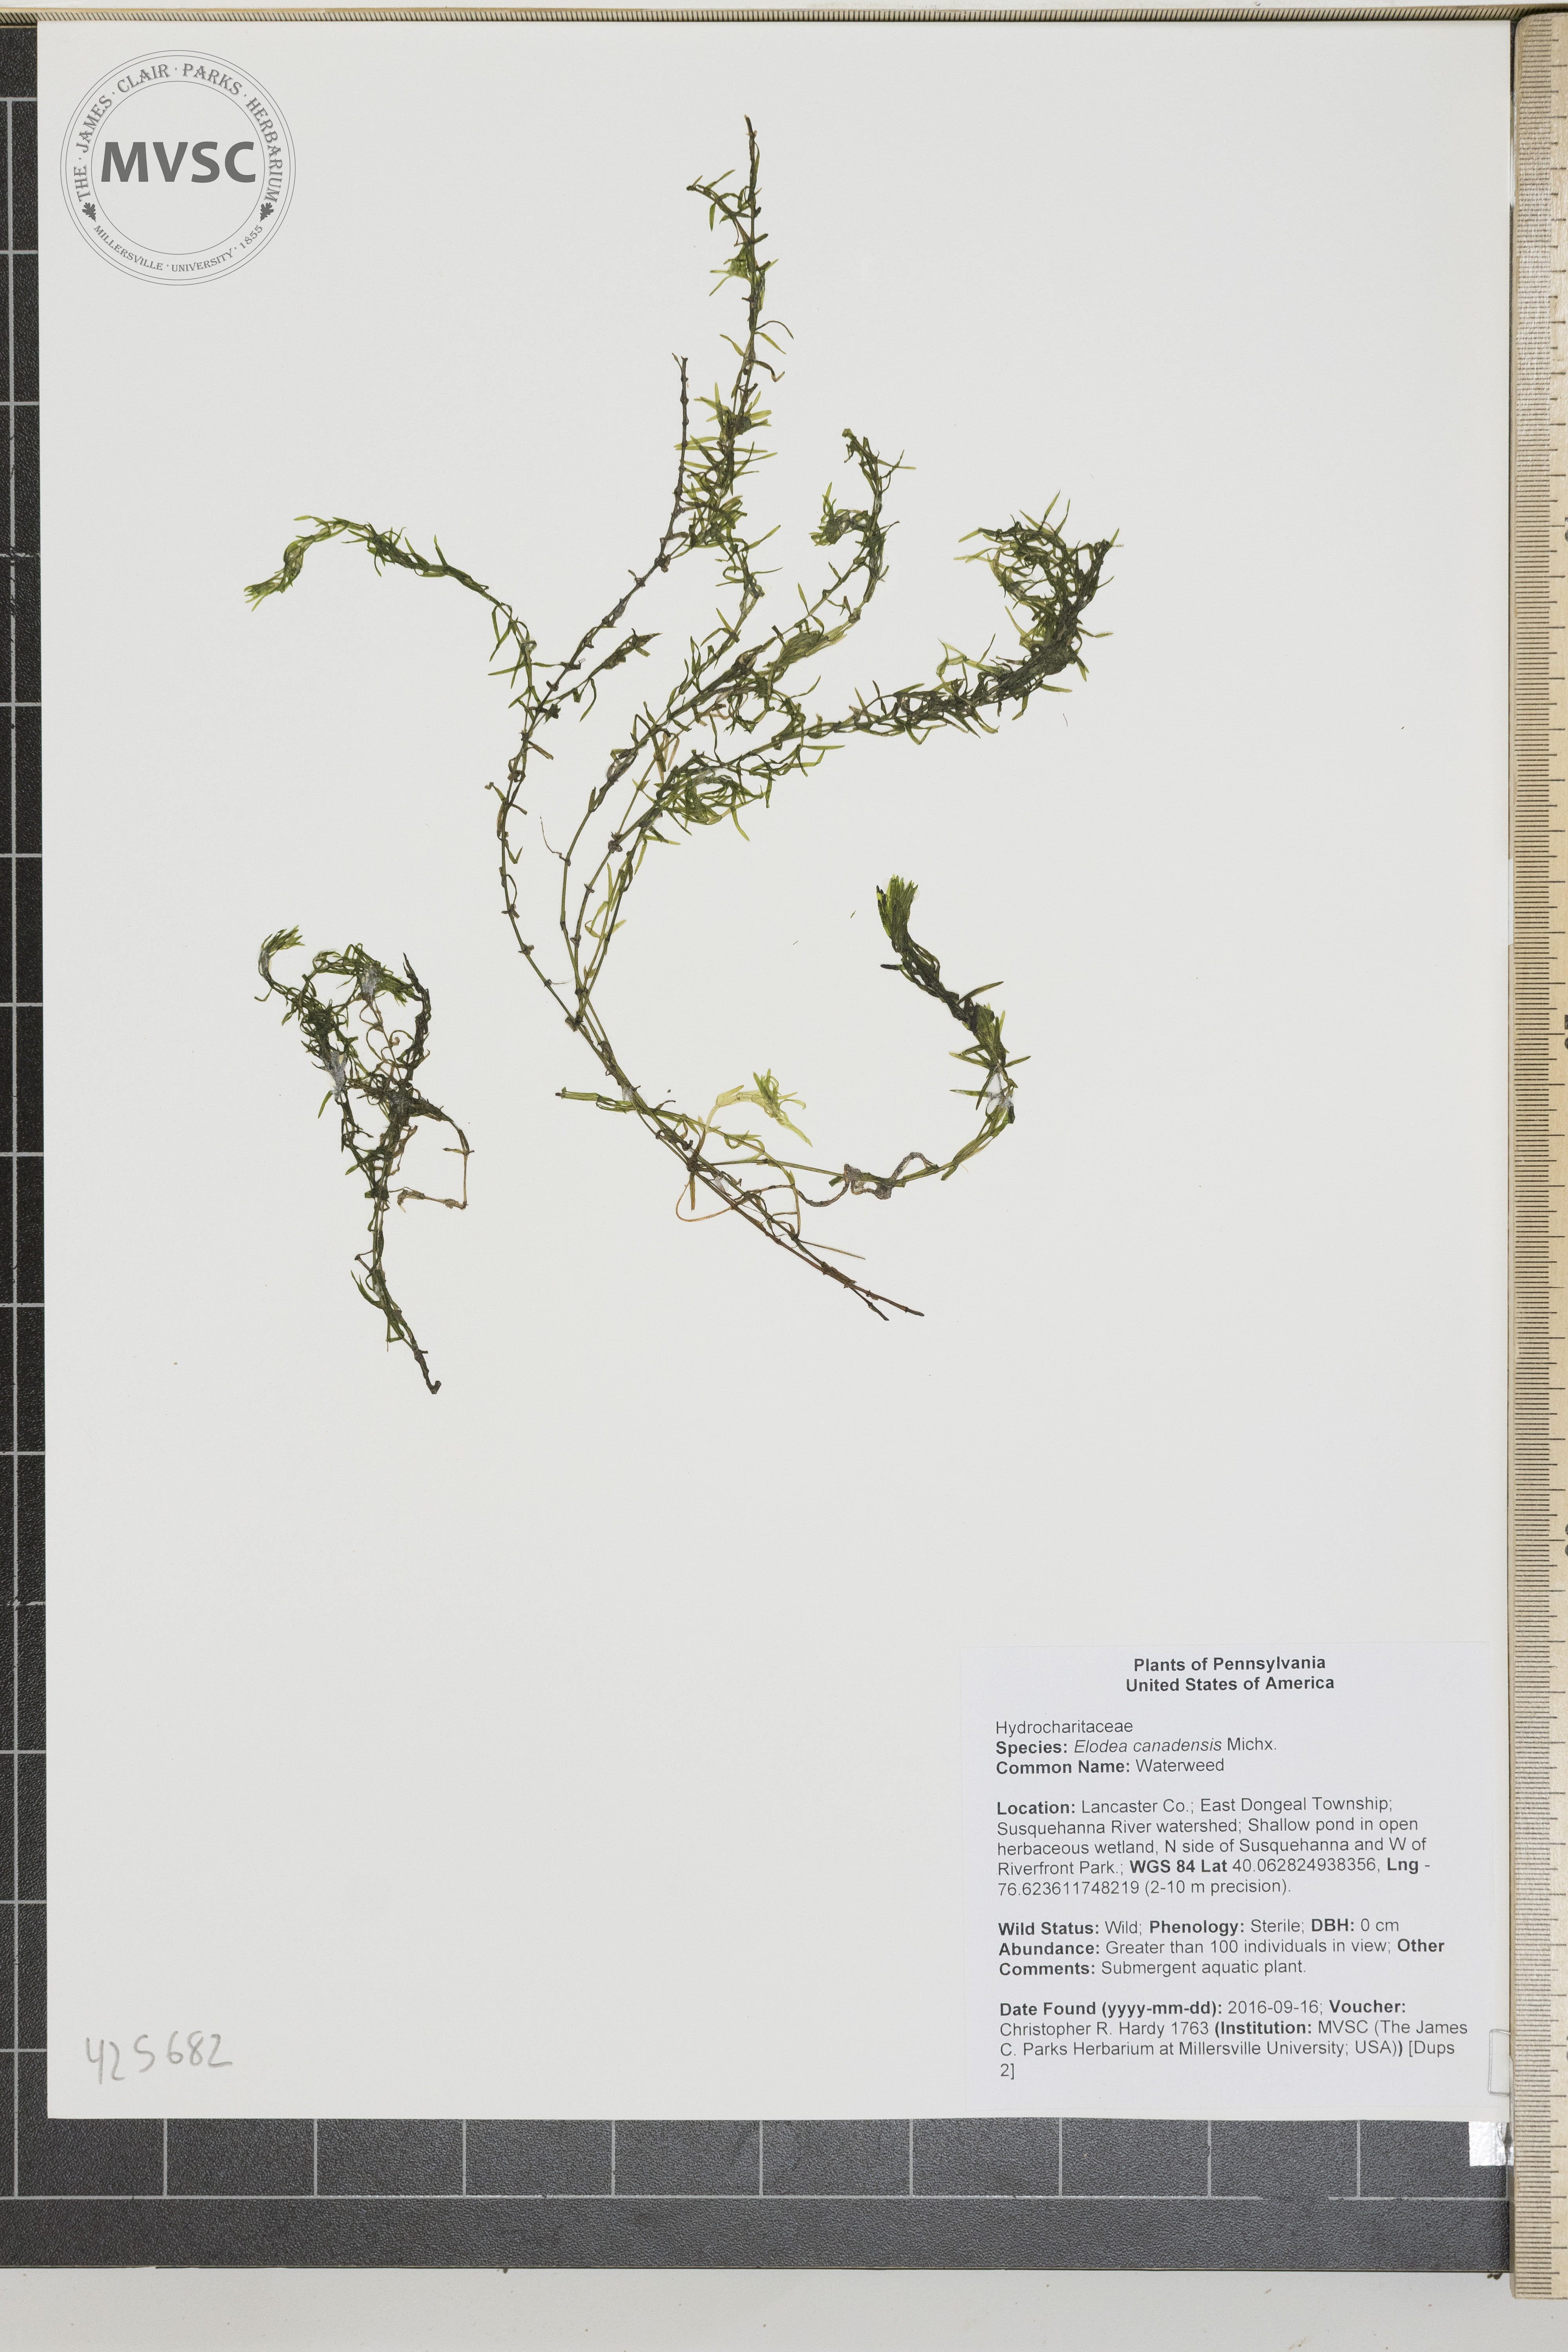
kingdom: Plantae
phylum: Tracheophyta
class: Liliopsida
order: Alismatales
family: Hydrocharitaceae
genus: Elodea
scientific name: Elodea canadensis
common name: Waterweed
